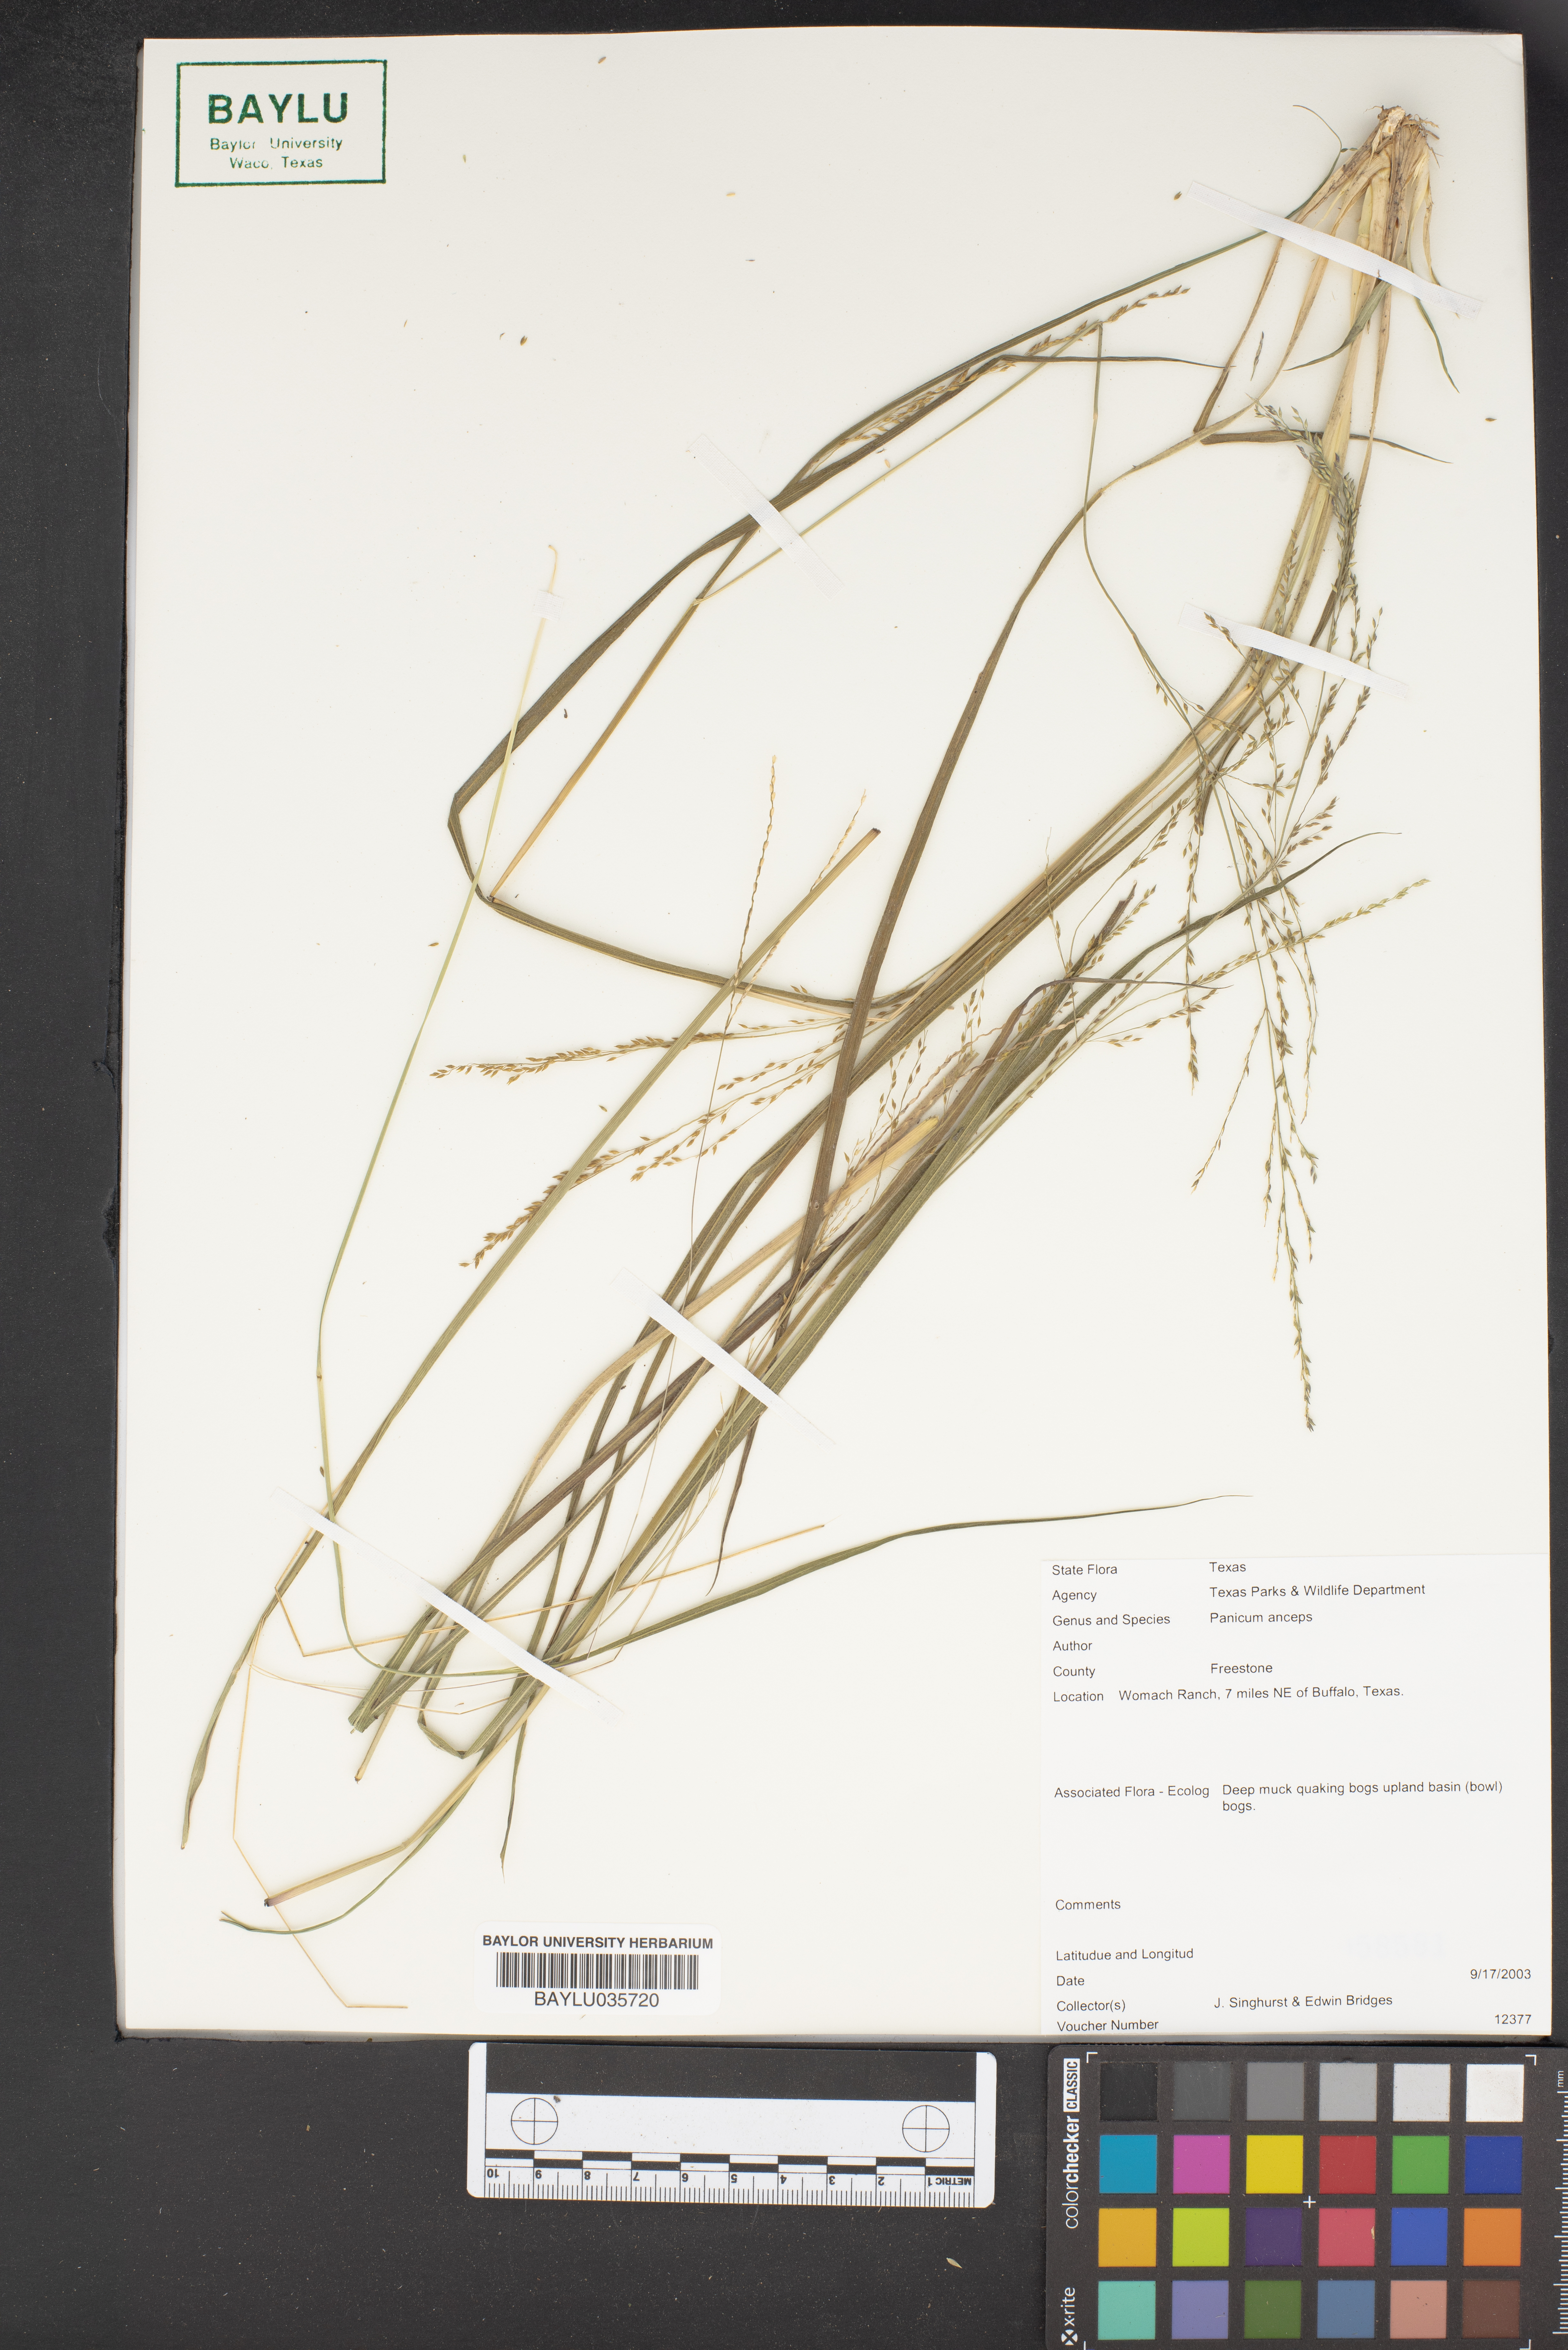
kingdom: Plantae
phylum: Tracheophyta
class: Liliopsida
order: Poales
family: Poaceae
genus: Coleataenia
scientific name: Coleataenia anceps
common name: Beaked panic grass
